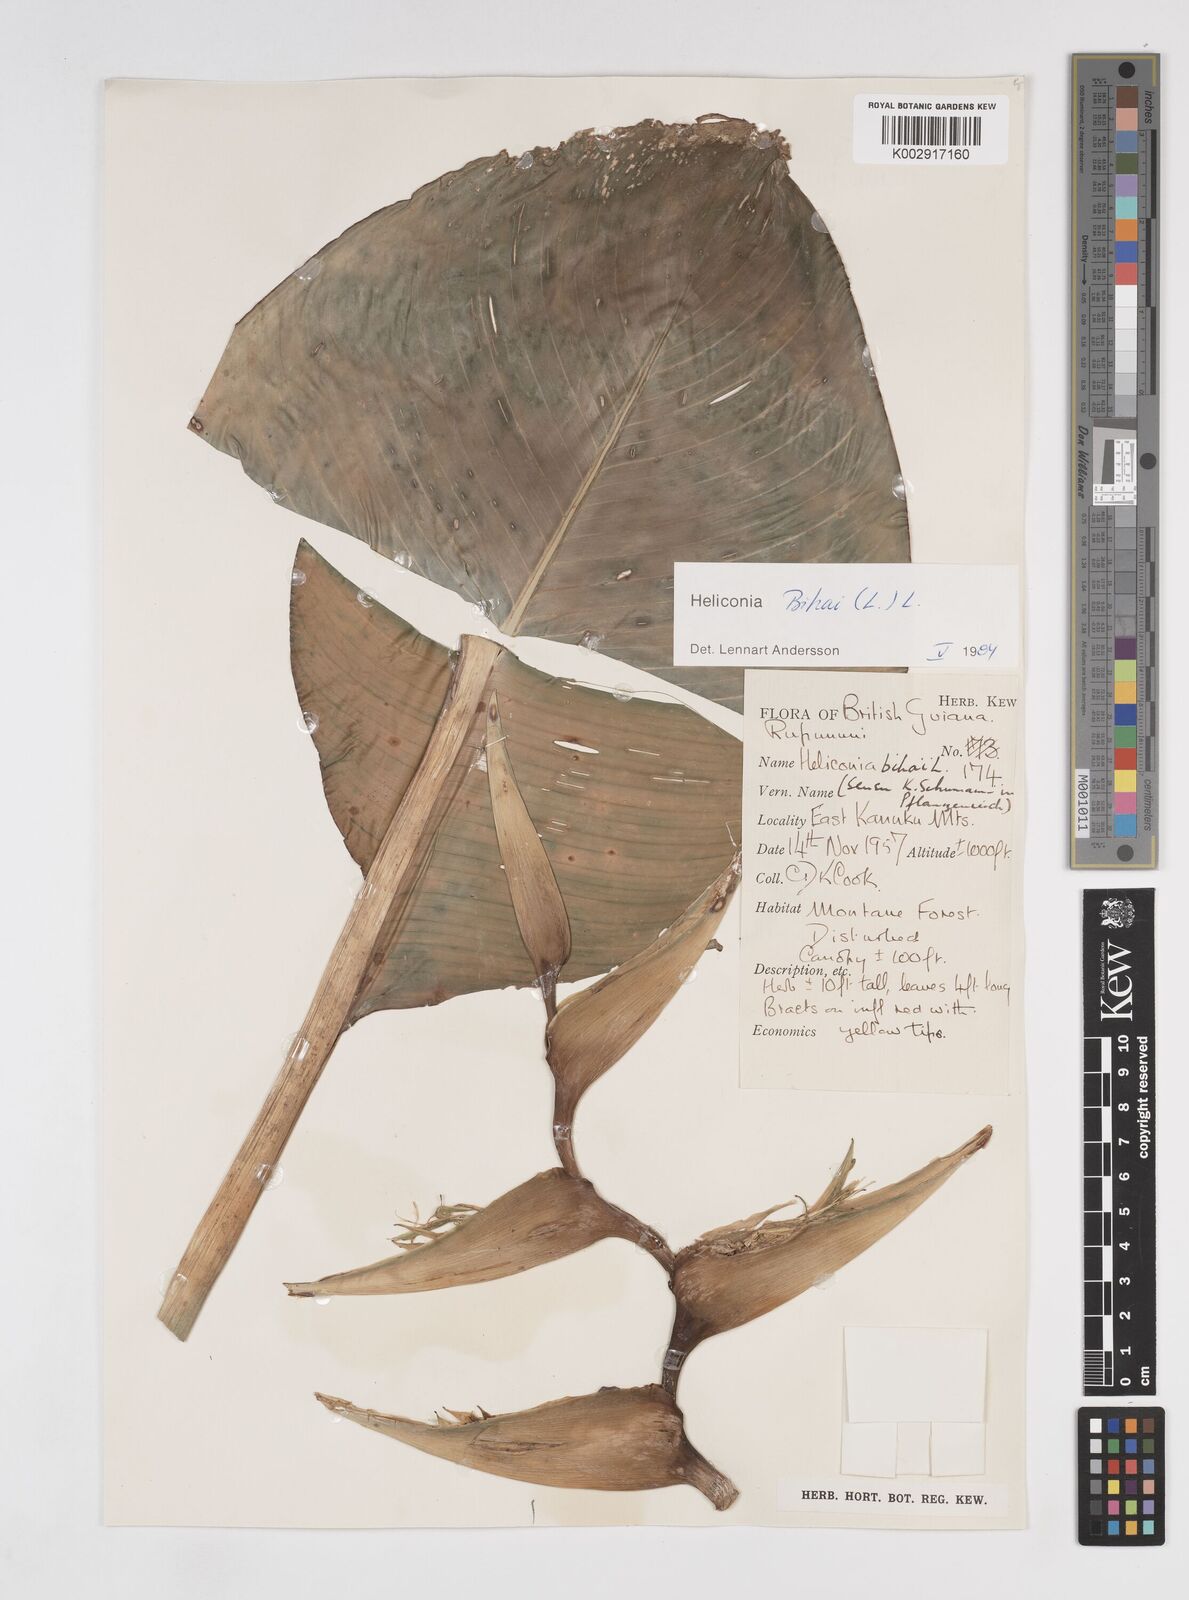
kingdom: Plantae
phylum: Tracheophyta
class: Liliopsida
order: Zingiberales
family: Heliconiaceae
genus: Heliconia
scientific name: Heliconia bihai
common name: Macaw flower
